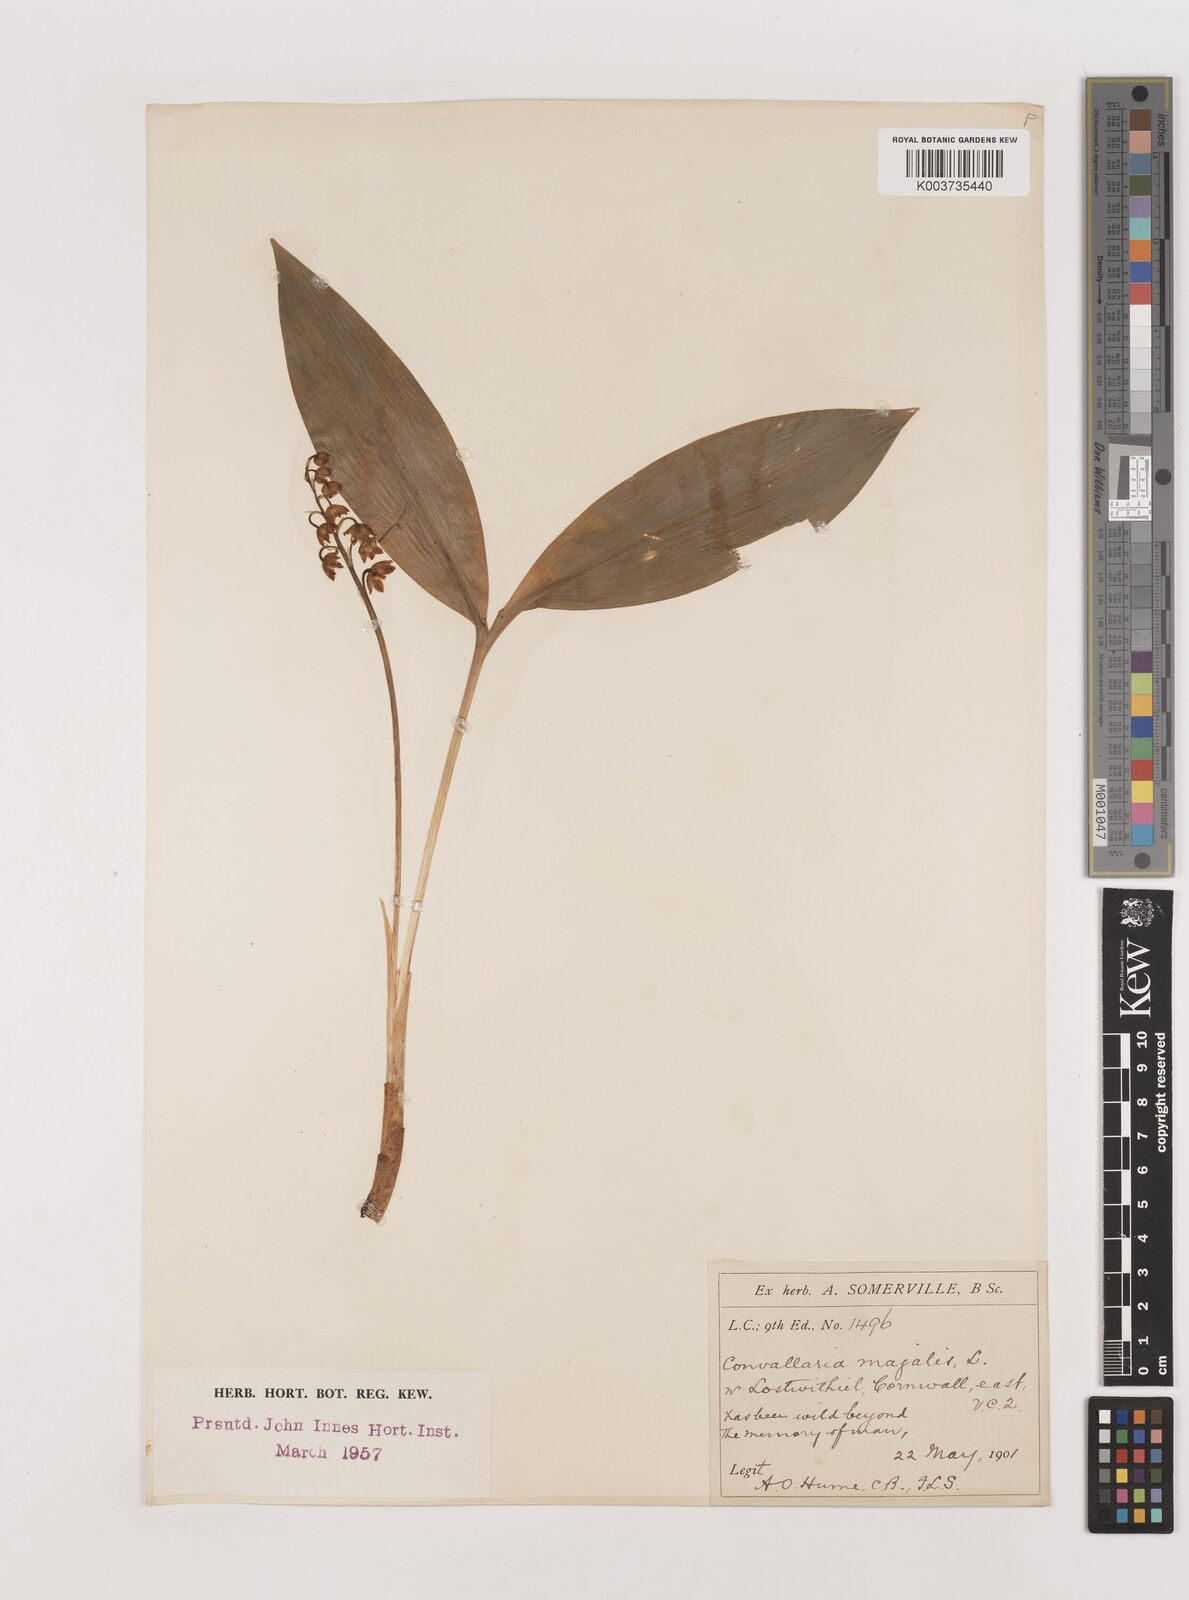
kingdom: Plantae
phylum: Tracheophyta
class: Liliopsida
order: Asparagales
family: Asparagaceae
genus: Convallaria
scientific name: Convallaria majalis
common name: Lily-of-the-valley
